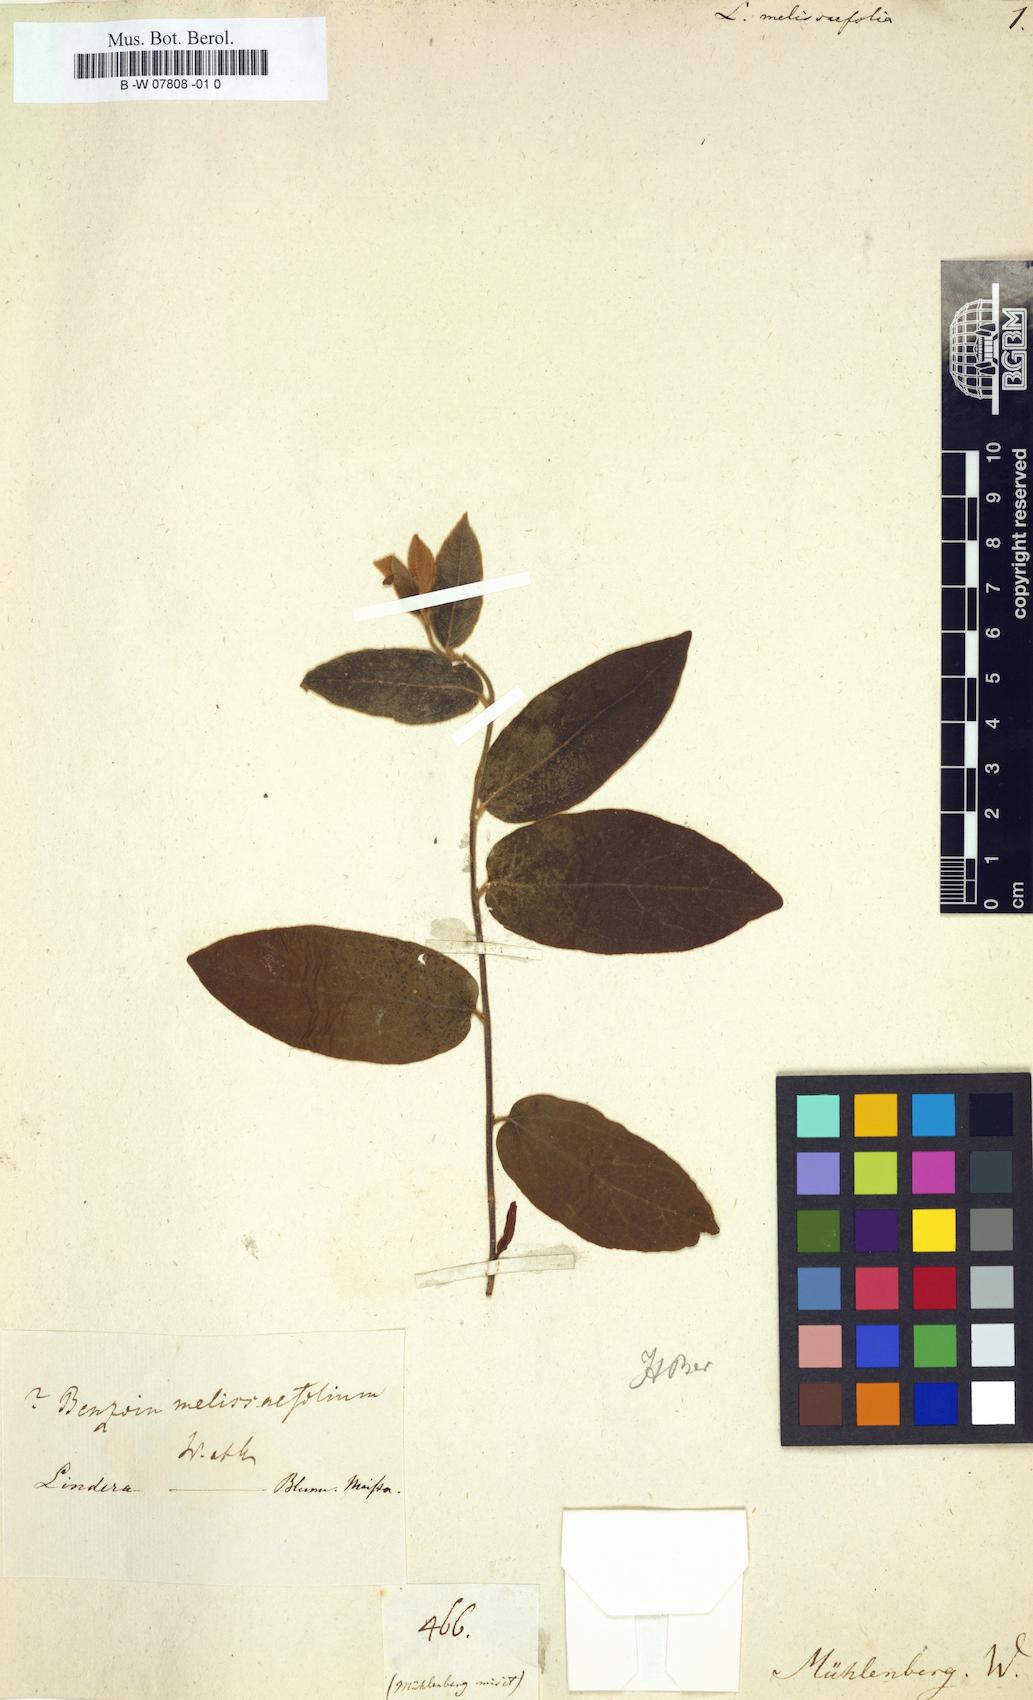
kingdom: Plantae
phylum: Tracheophyta
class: Magnoliopsida
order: Laurales
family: Lauraceae
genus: Lindera
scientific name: Lindera melissifolia
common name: Pondberry
